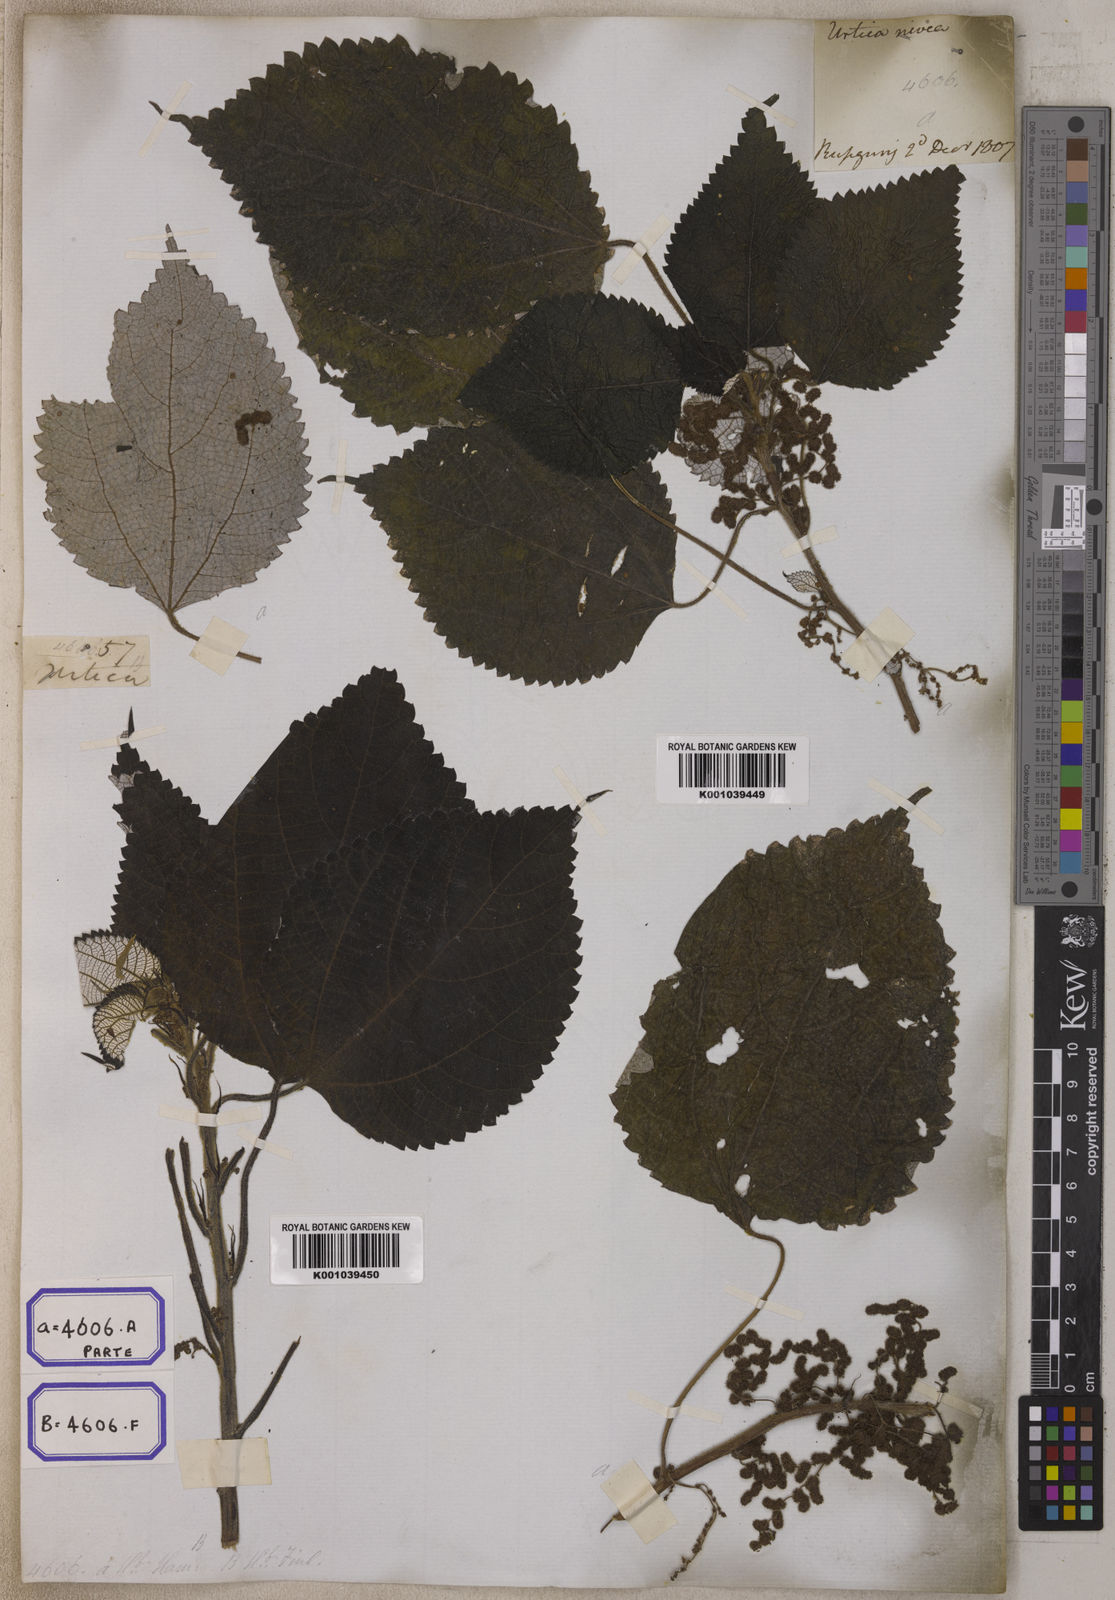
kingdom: Plantae
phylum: Tracheophyta
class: Magnoliopsida
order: Rosales
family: Urticaceae
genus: Boehmeria
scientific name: Boehmeria nivea
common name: Ramie chinese grass
